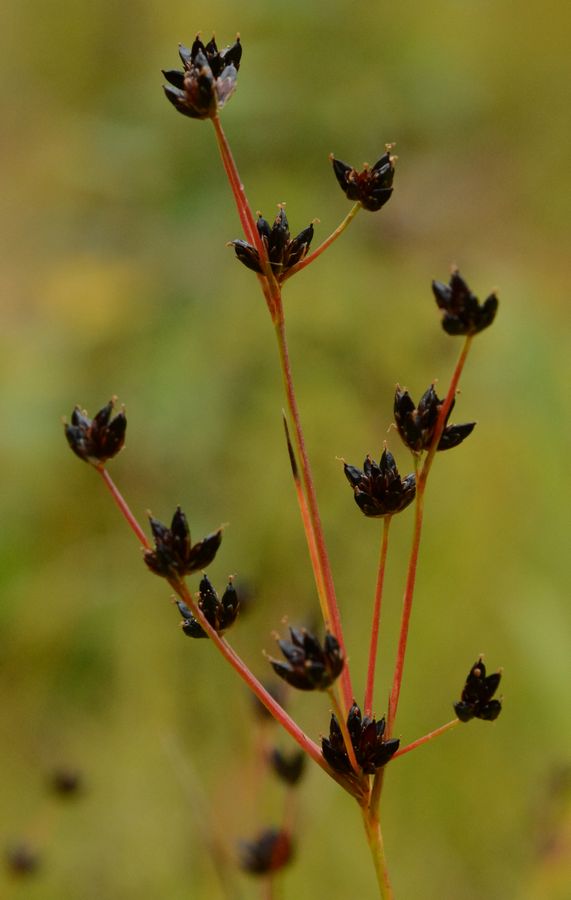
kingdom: Plantae
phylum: Tracheophyta
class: Liliopsida
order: Poales
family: Juncaceae
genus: Juncus
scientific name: Juncus alpinoarticulatus
